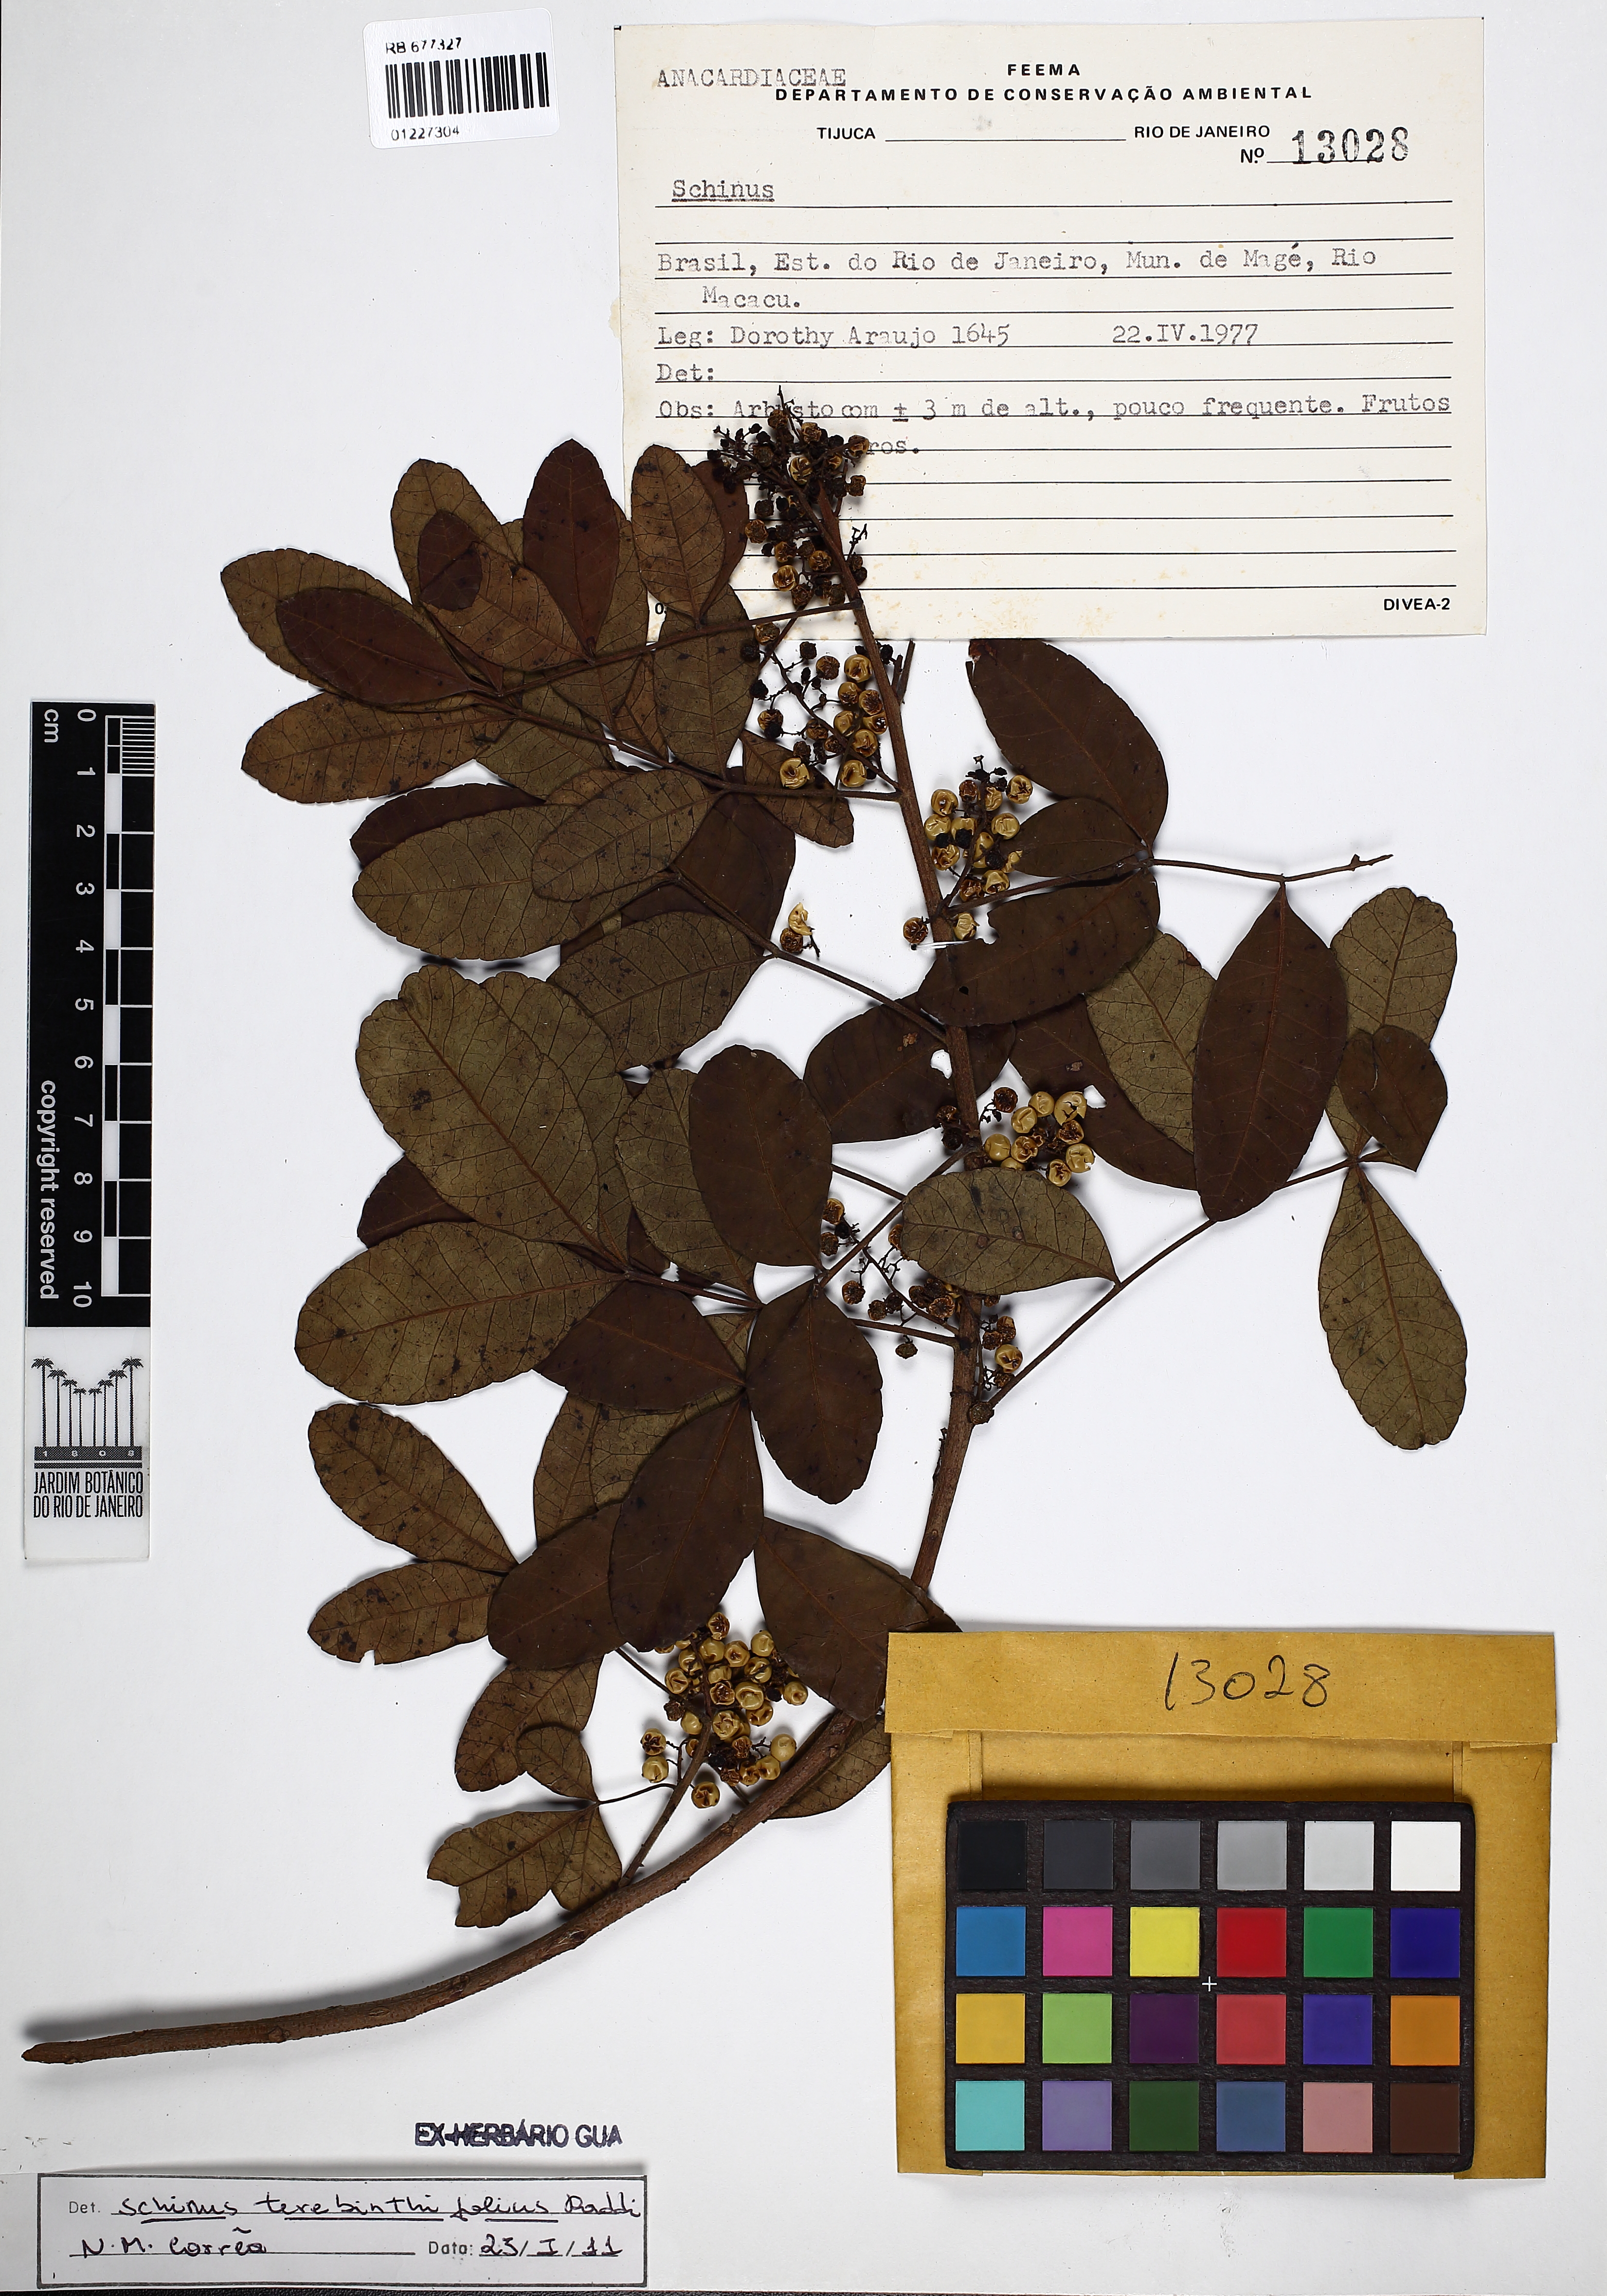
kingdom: Plantae
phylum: Tracheophyta
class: Magnoliopsida
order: Sapindales
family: Anacardiaceae
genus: Schinus
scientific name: Schinus terebinthifolia
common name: Brazilian peppertree
